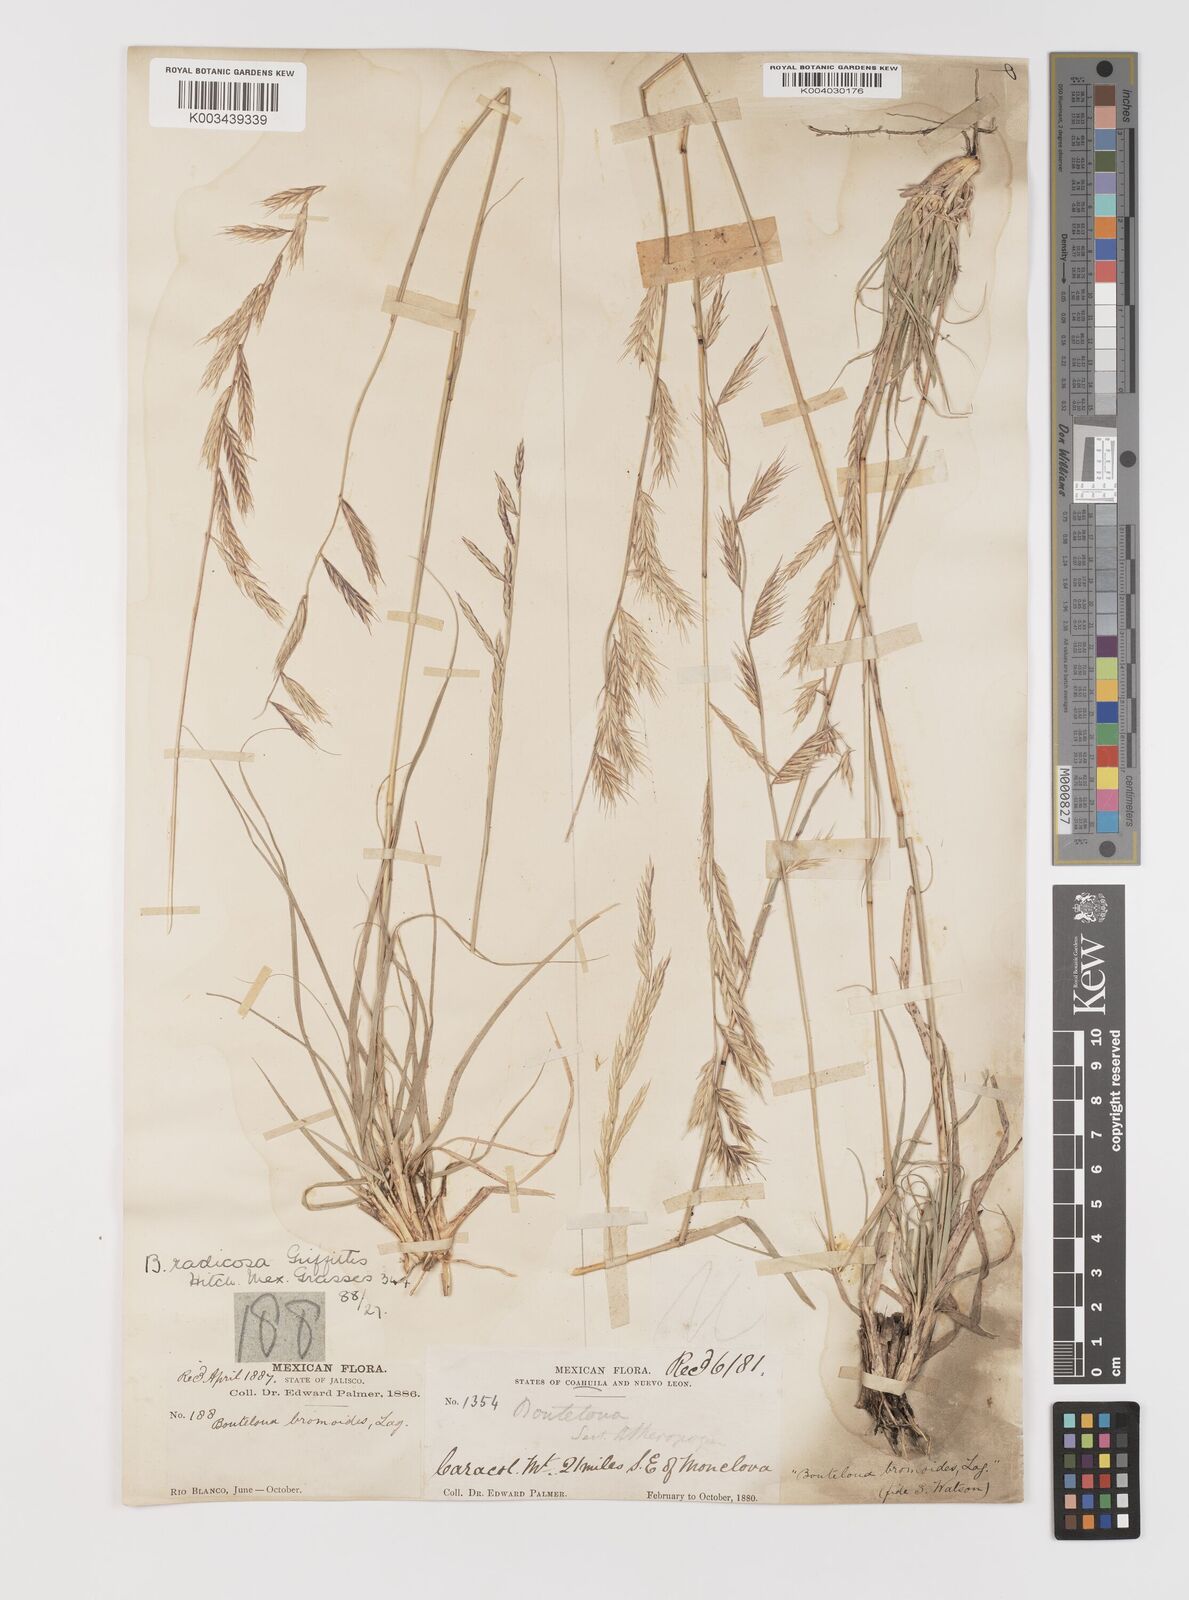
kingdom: Plantae
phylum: Tracheophyta
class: Liliopsida
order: Poales
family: Poaceae
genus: Bouteloua
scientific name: Bouteloua radicosa
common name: Purple grama
